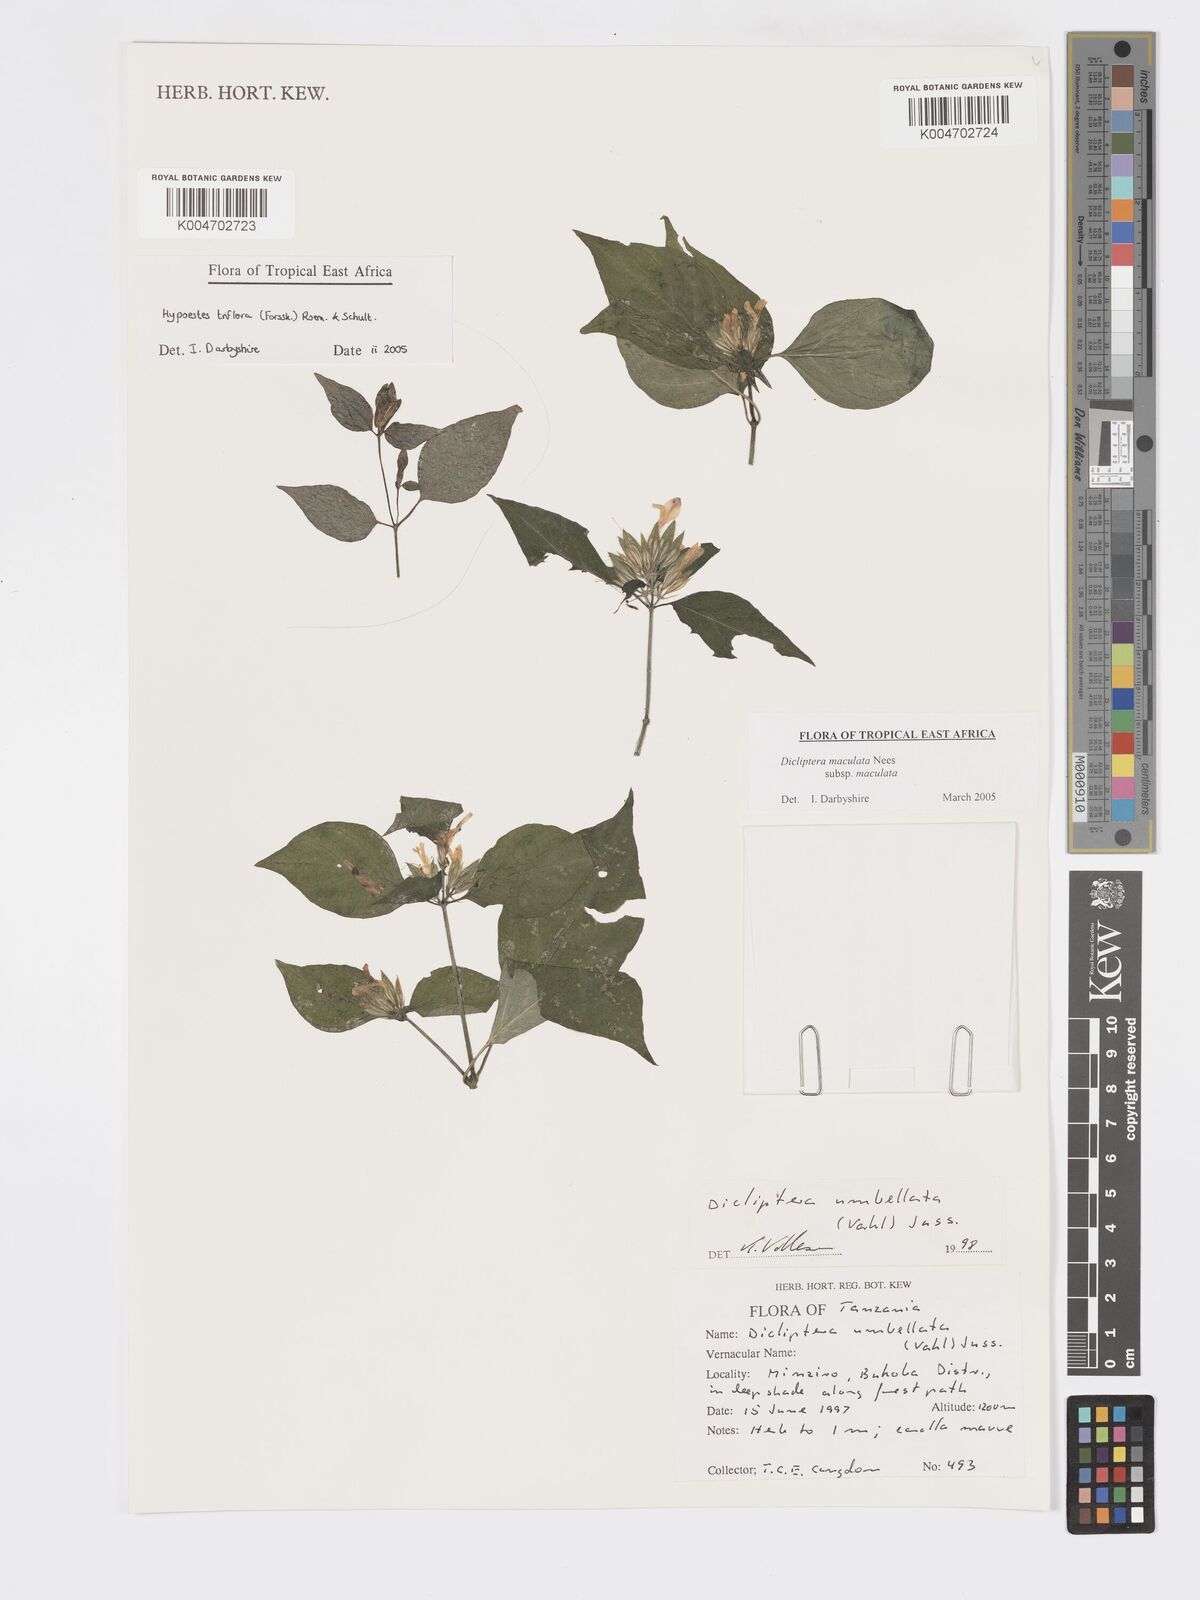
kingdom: Plantae
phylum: Tracheophyta
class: Magnoliopsida
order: Lamiales
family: Acanthaceae
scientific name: Acanthaceae
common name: Acanthaceae
